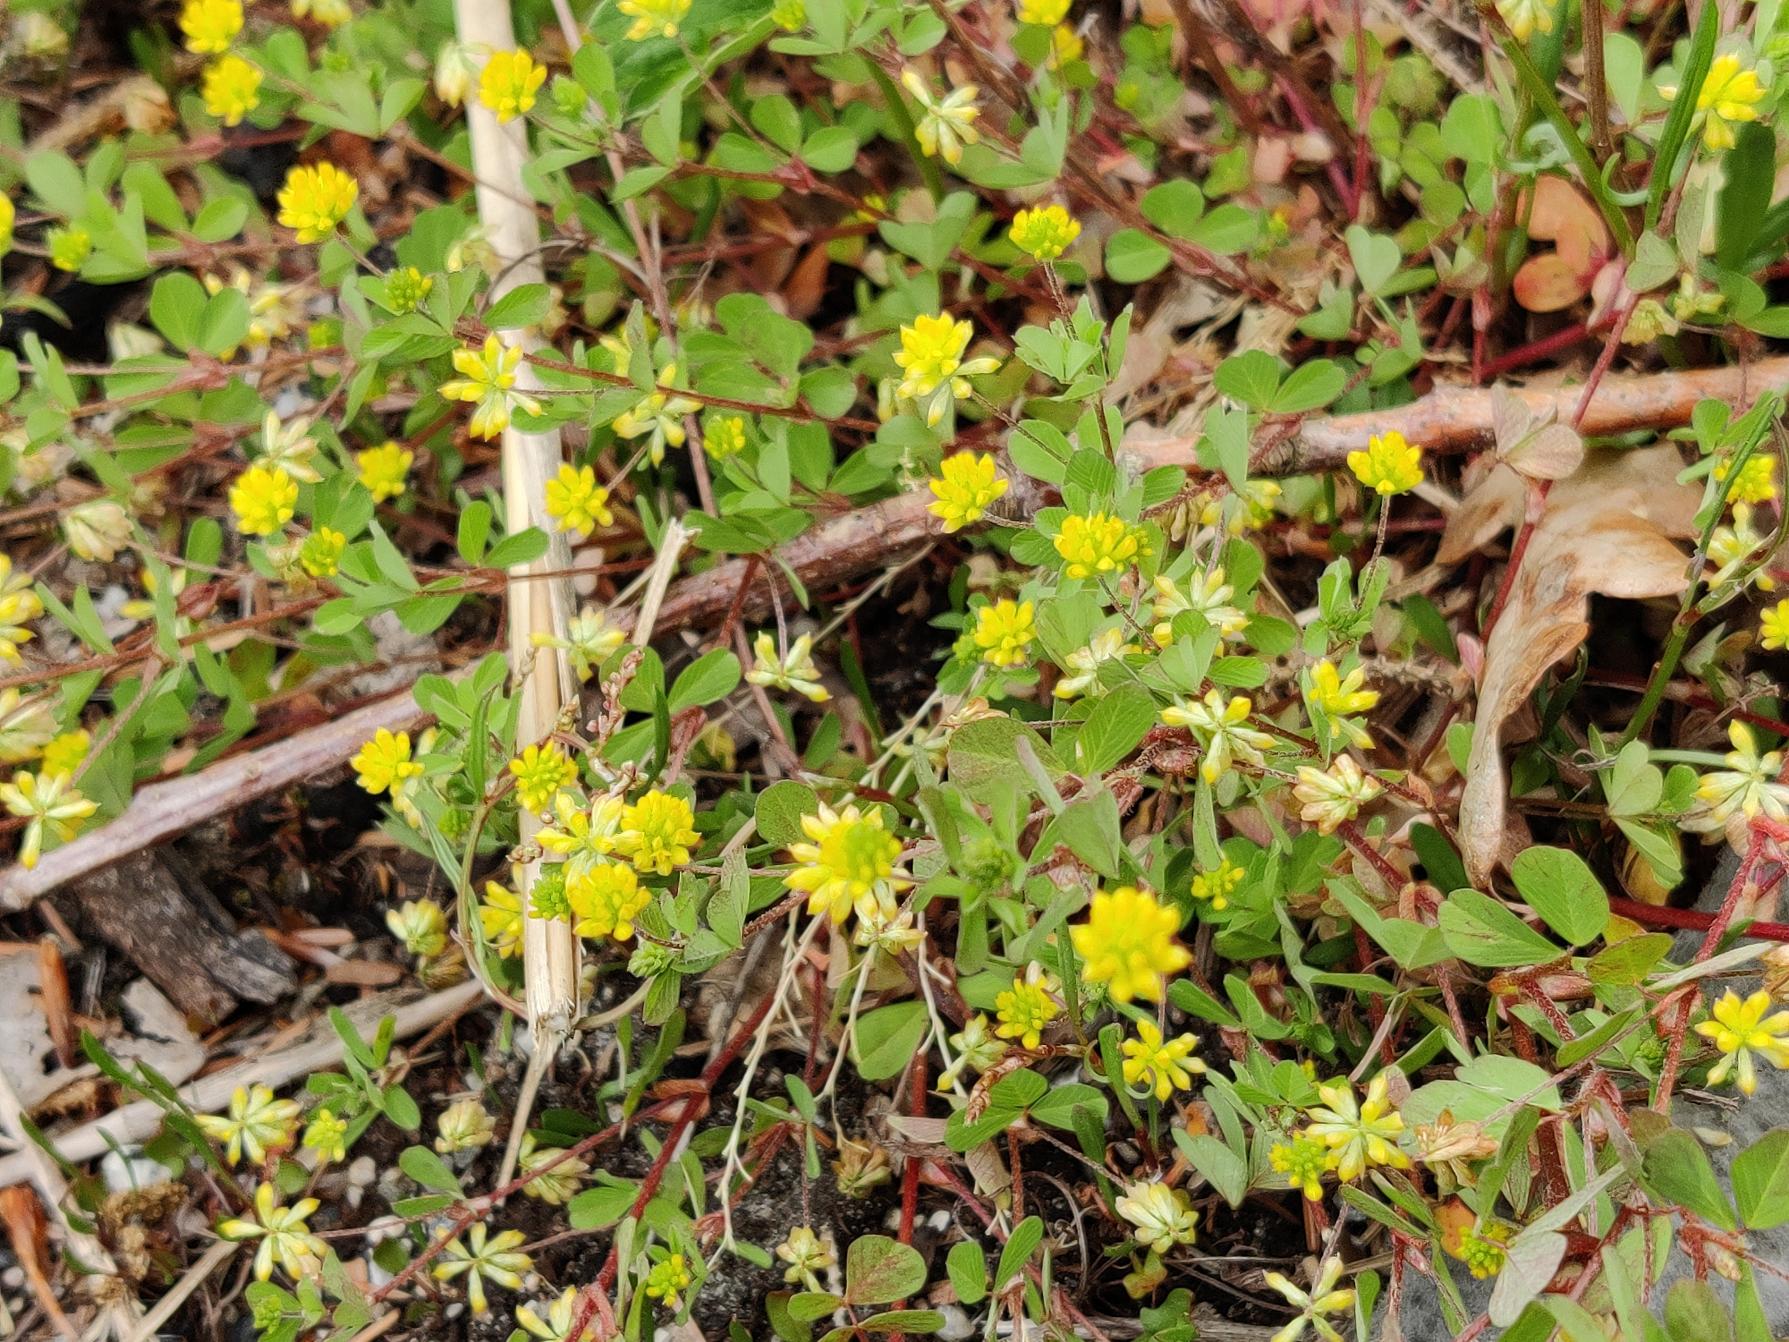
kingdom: Plantae
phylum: Tracheophyta
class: Magnoliopsida
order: Fabales
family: Fabaceae
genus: Trifolium
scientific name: Trifolium dubium
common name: Fin kløver
